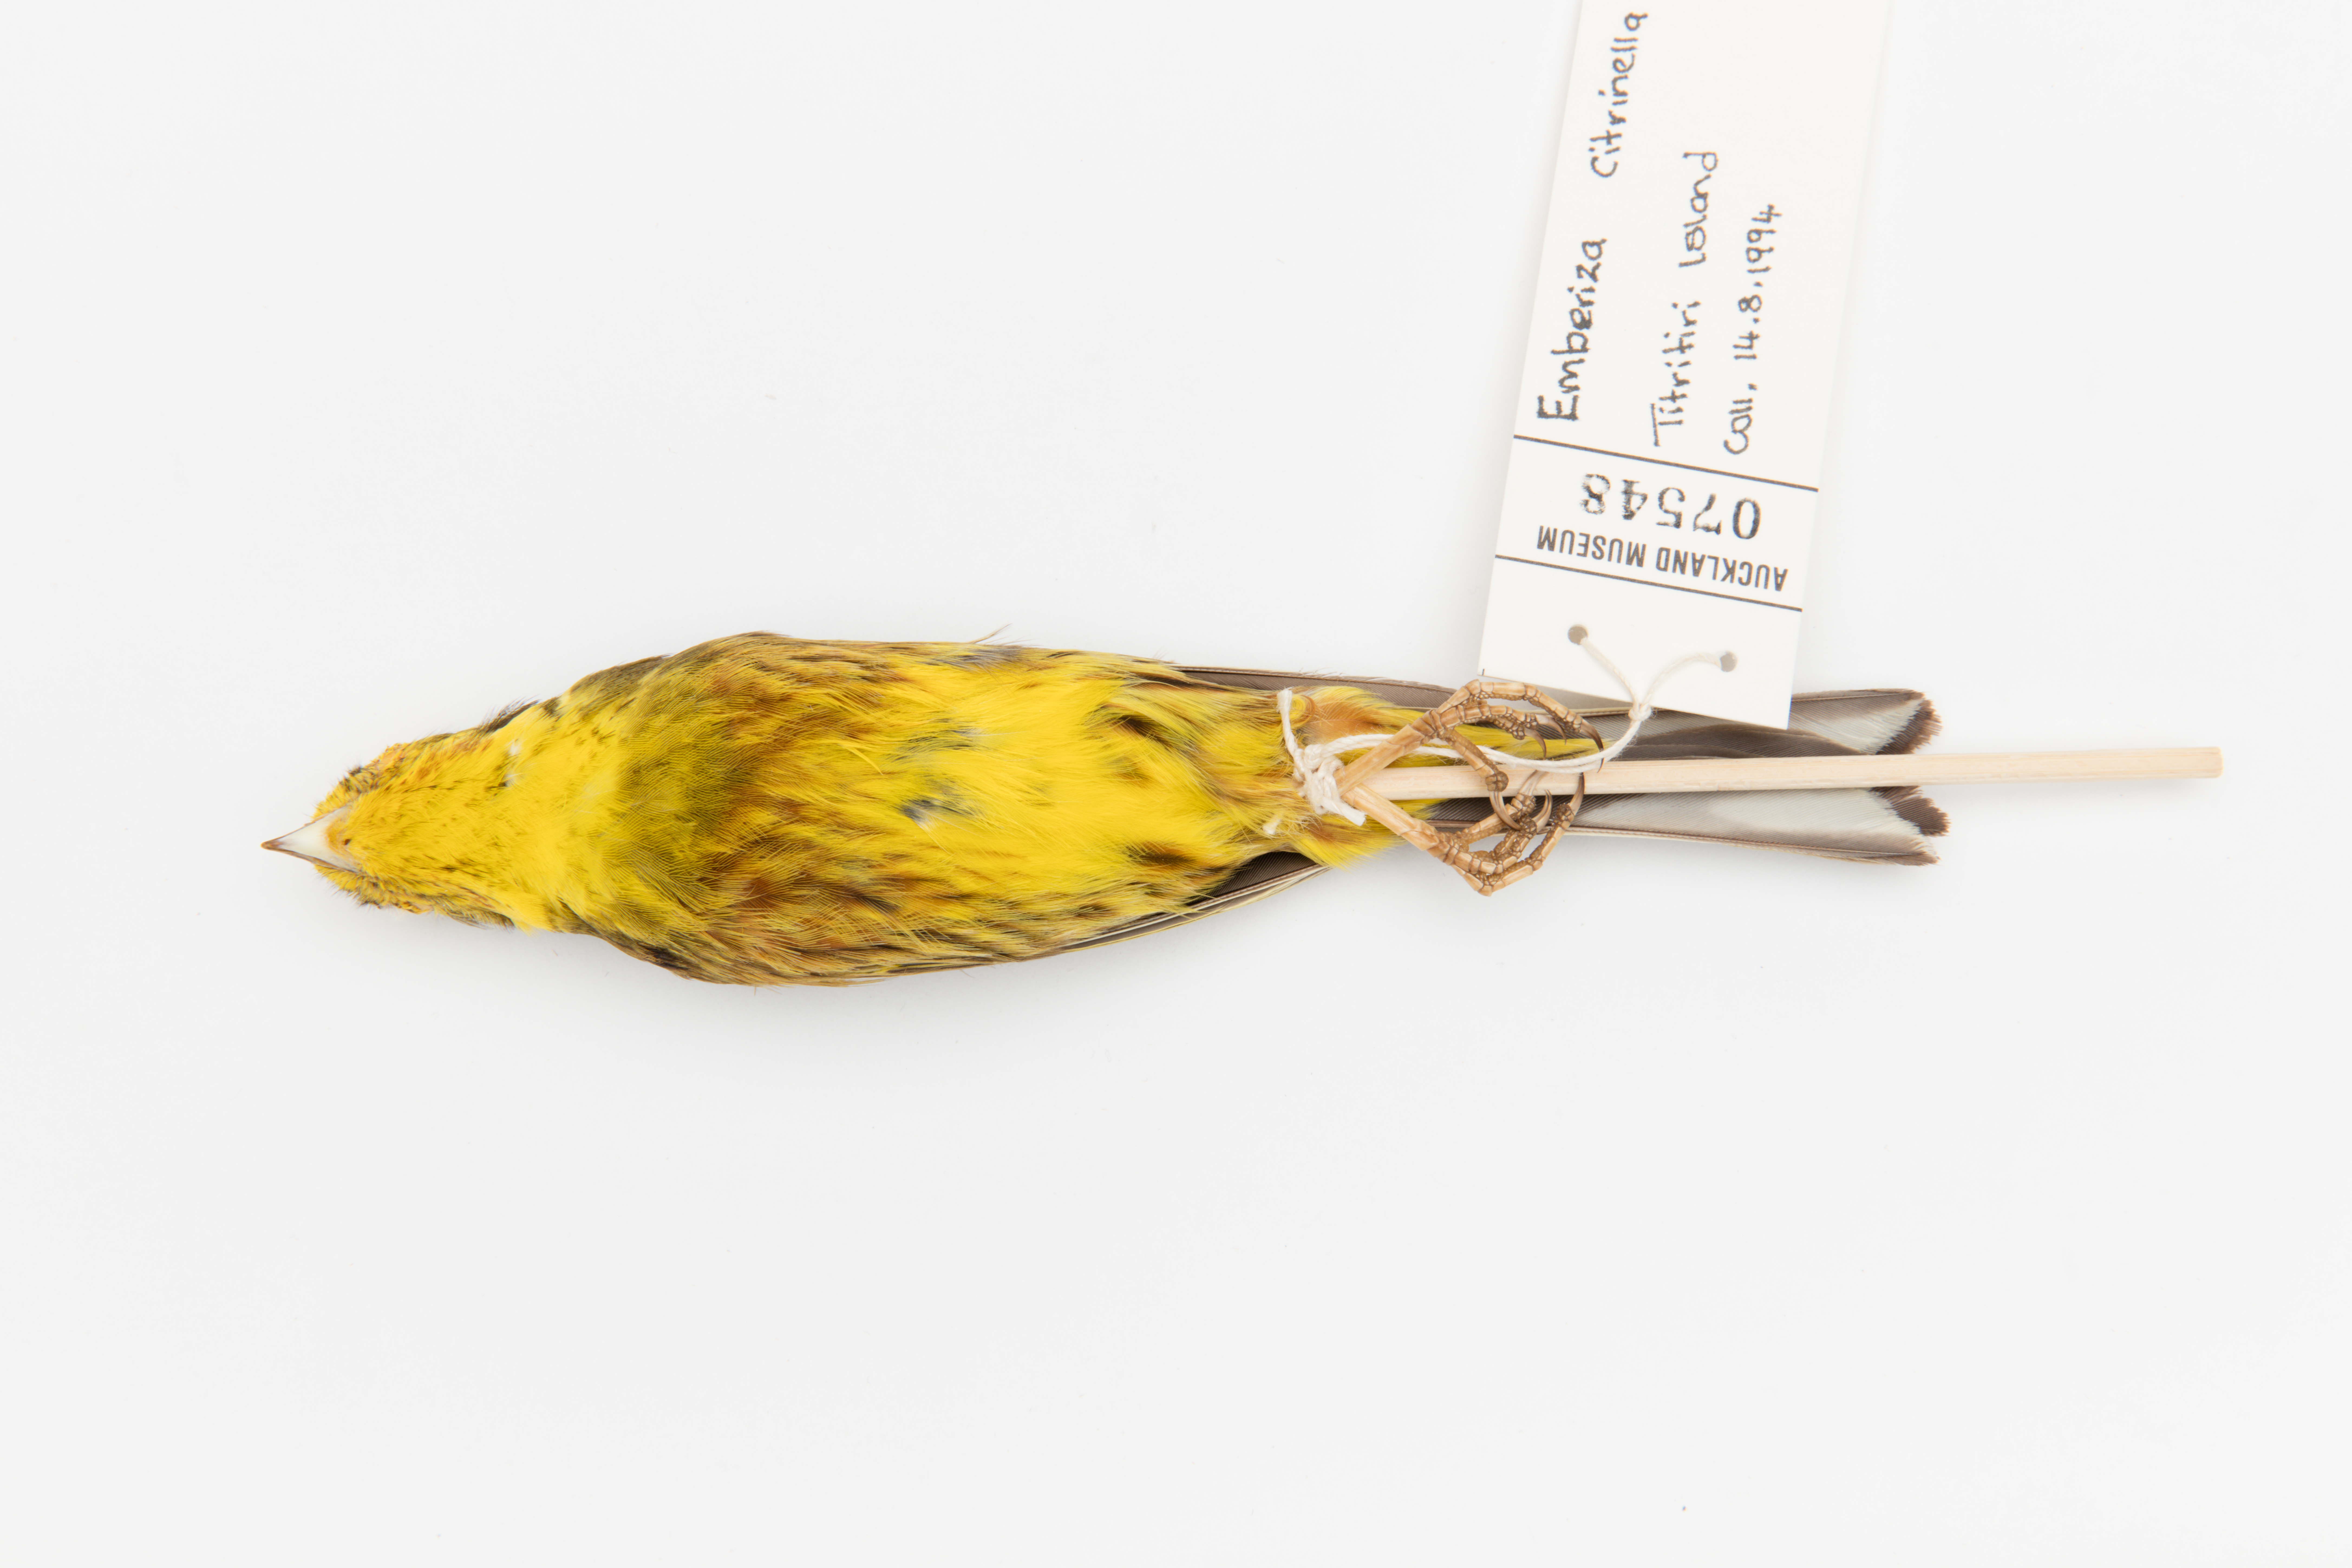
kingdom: Animalia
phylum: Chordata
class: Aves
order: Passeriformes
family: Emberizidae
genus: Emberiza
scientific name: Emberiza citrinella
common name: Yellowhammer
